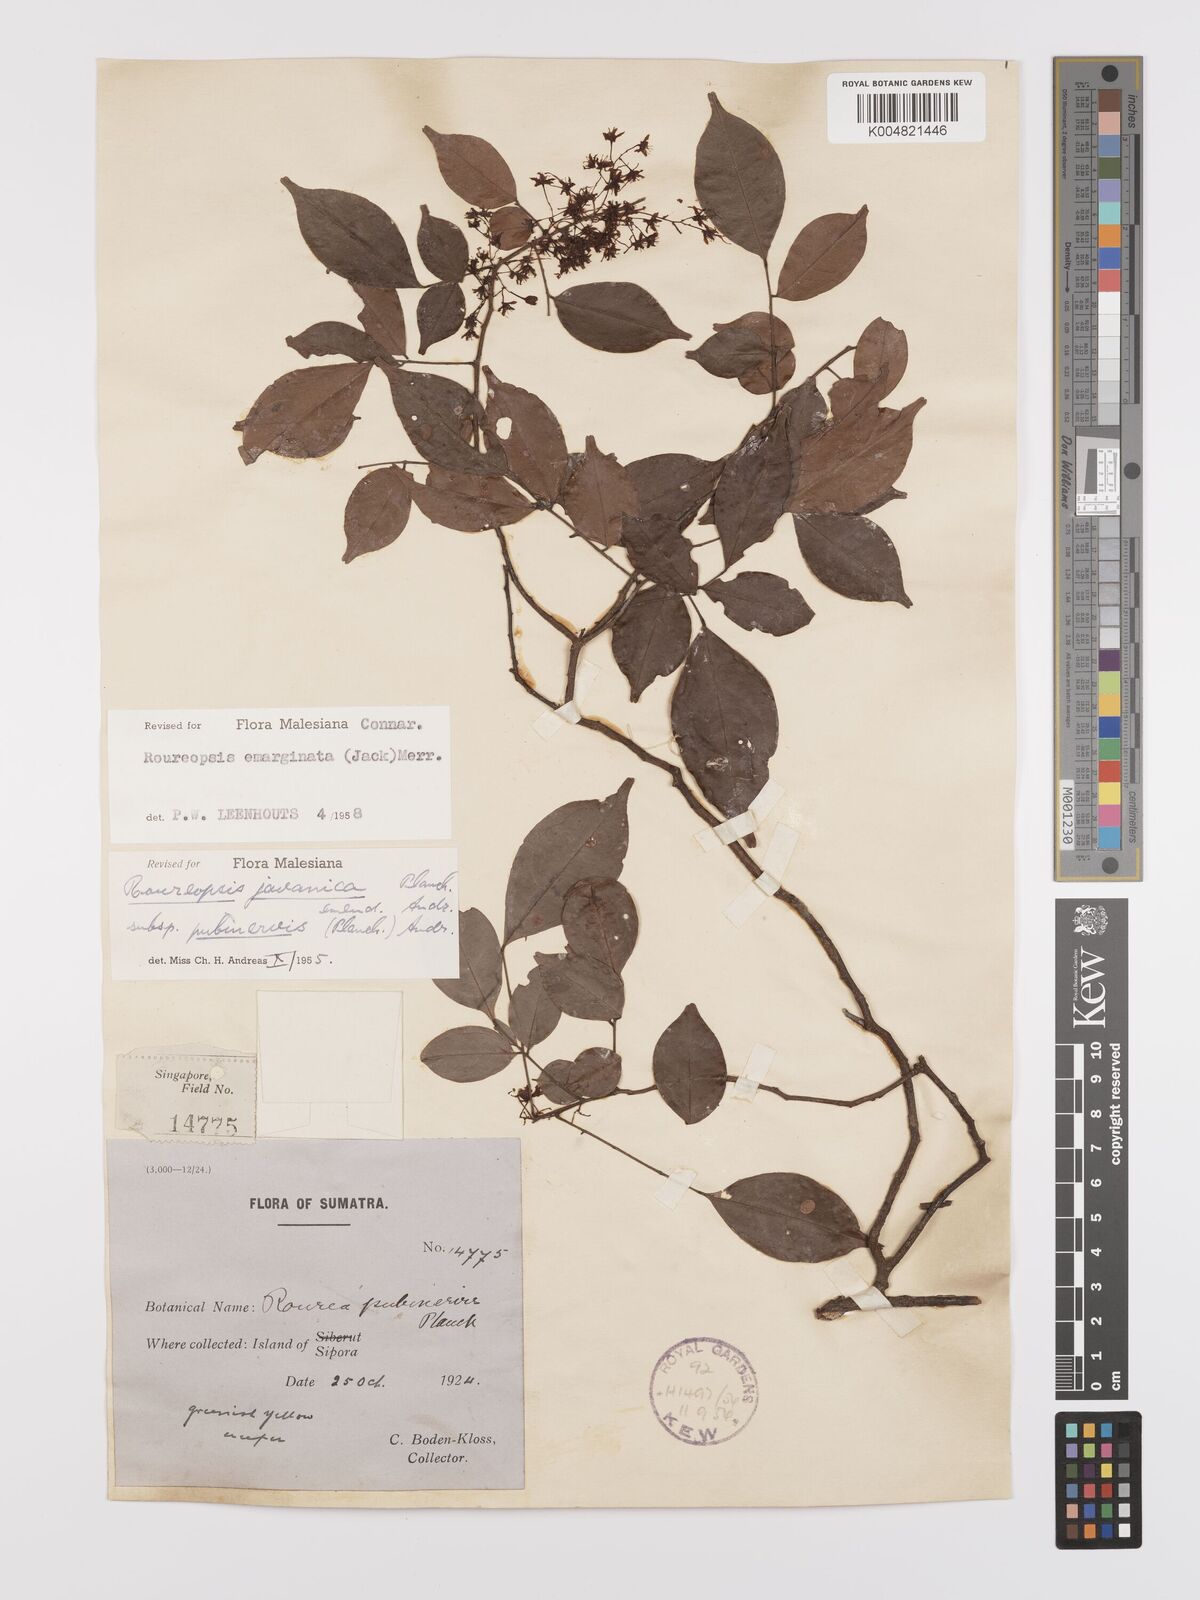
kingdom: Plantae
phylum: Tracheophyta
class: Magnoliopsida
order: Oxalidales
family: Connaraceae
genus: Rourea
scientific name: Rourea emarginata
